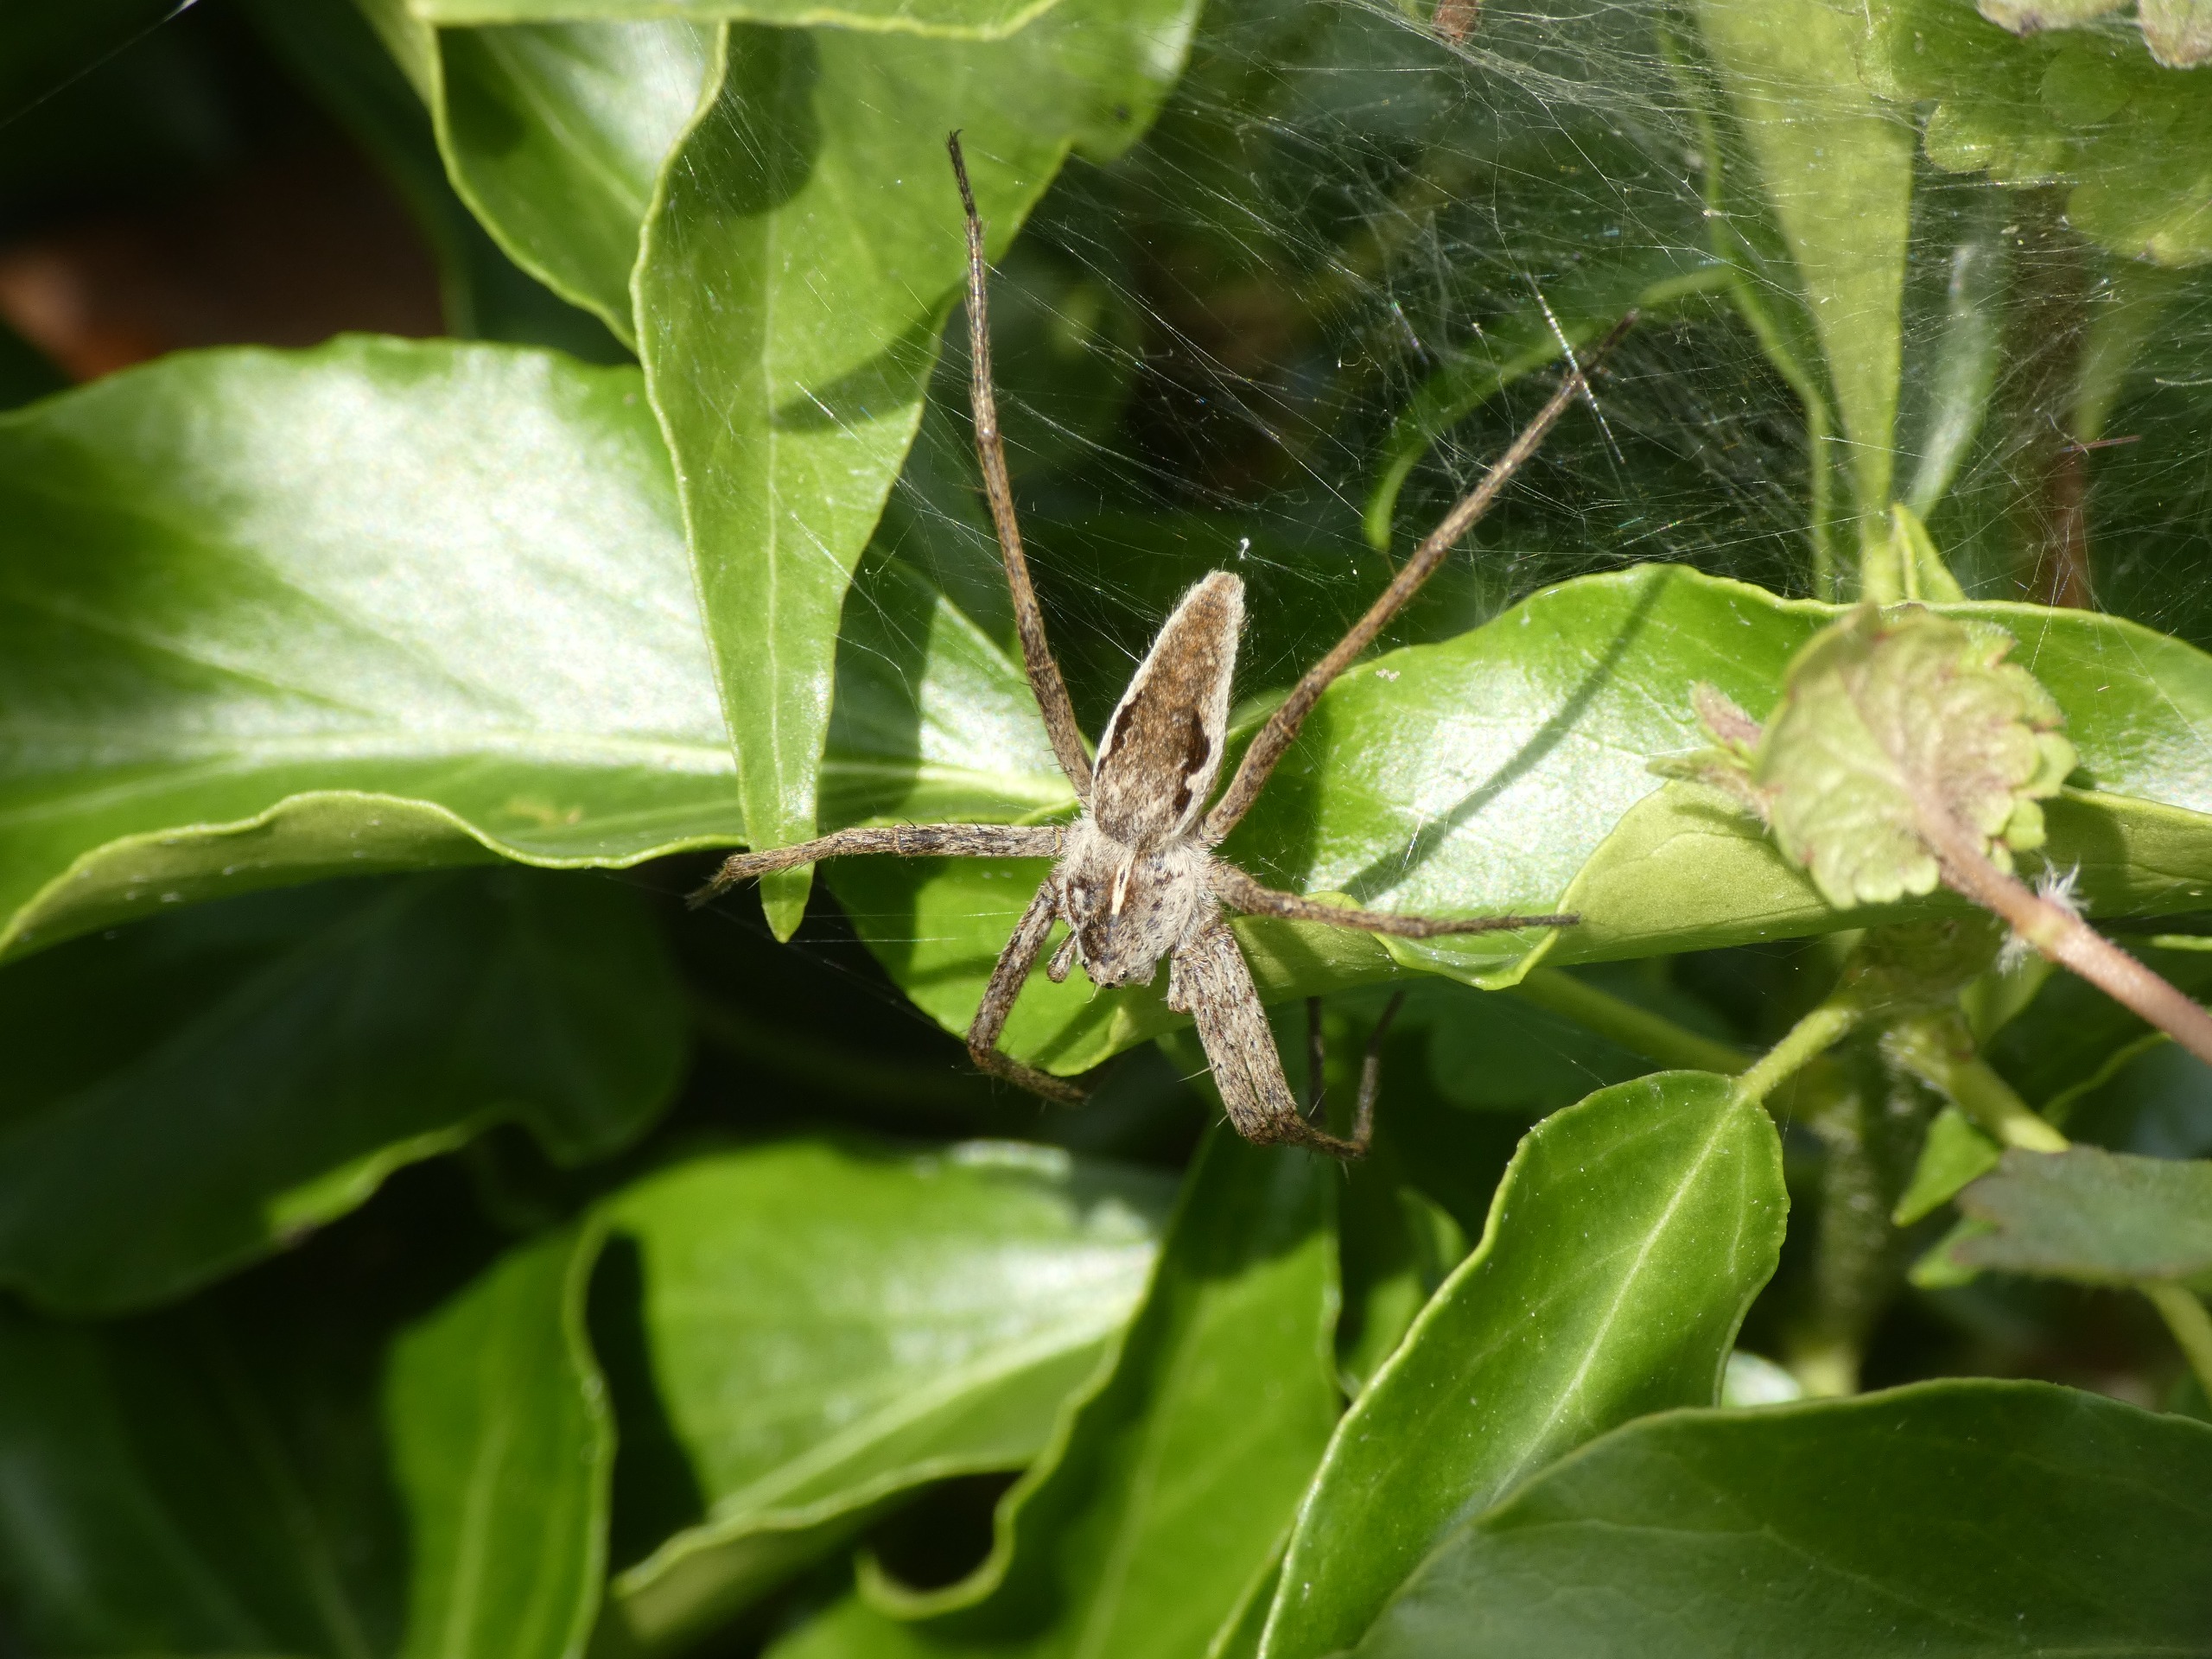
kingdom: Animalia
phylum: Arthropoda
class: Arachnida
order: Araneae
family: Pisauridae
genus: Pisaura
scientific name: Pisaura mirabilis
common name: Almindelig rovedderkop
